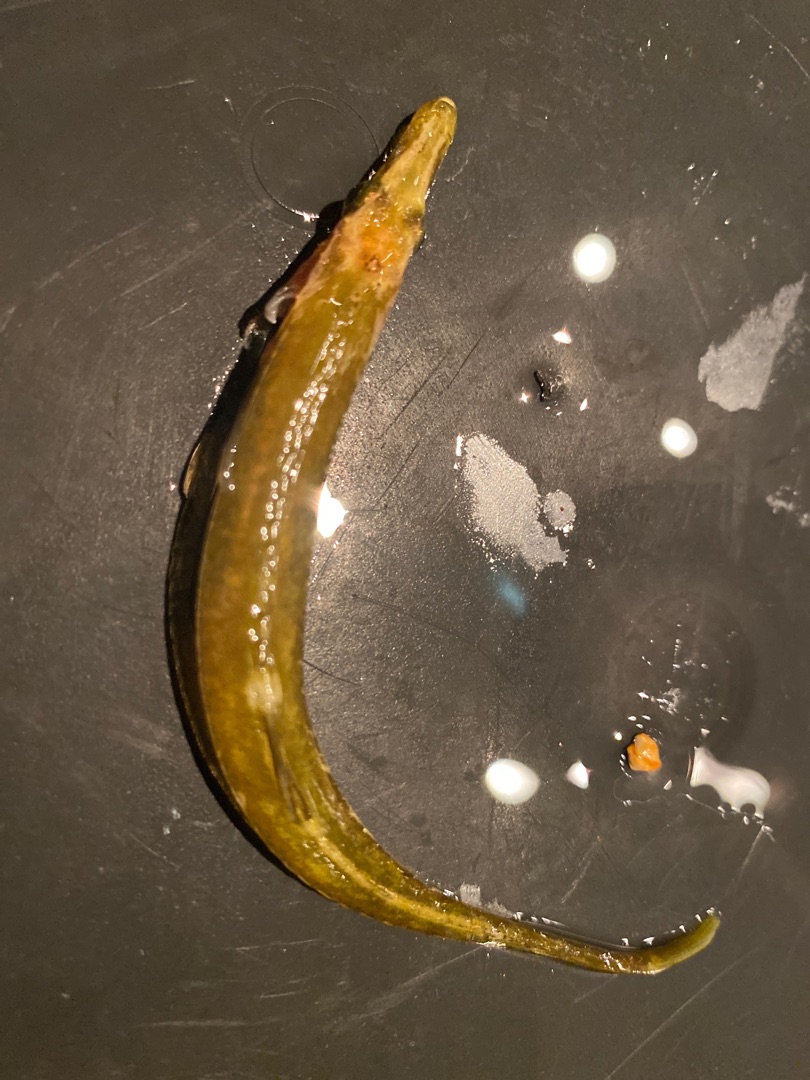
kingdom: Animalia
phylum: Chordata
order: Gasterosteiformes
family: Gasterosteidae
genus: Spinachia
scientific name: Spinachia spinachia
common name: Tangsnarre
